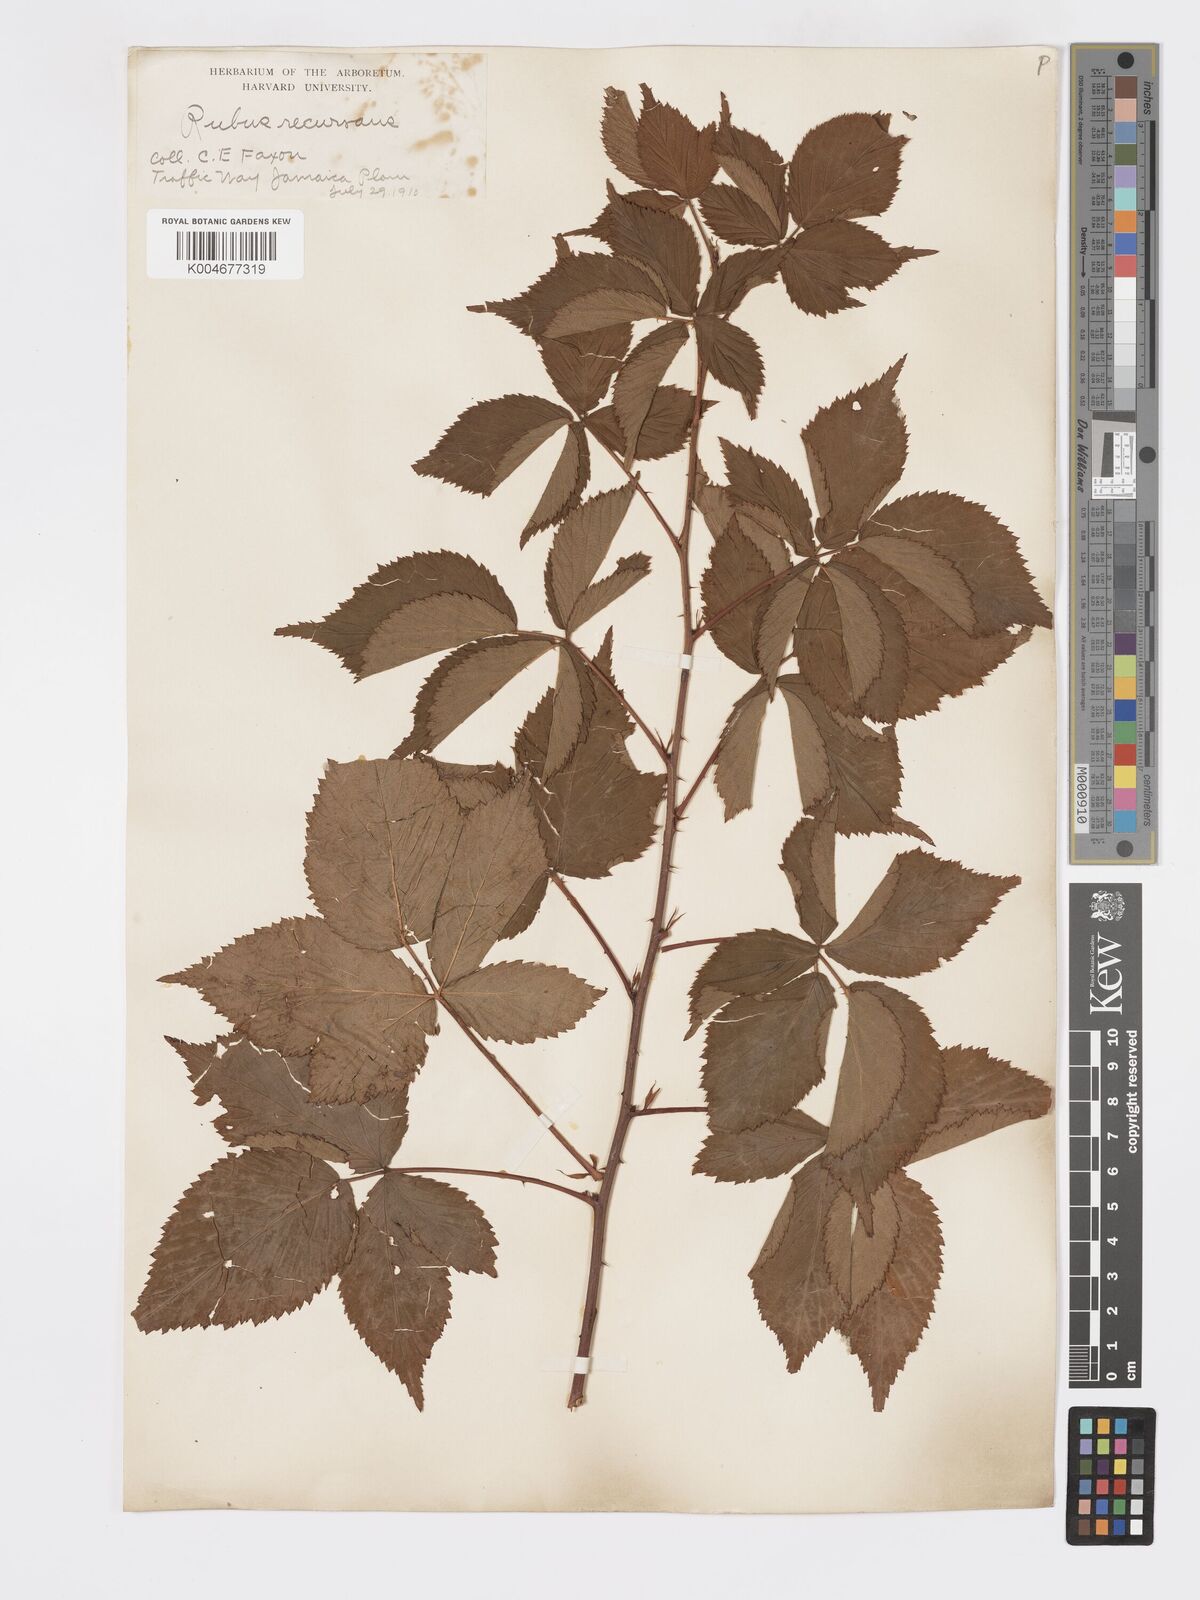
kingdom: Plantae
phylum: Tracheophyta
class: Magnoliopsida
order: Rosales
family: Rosaceae
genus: Rubus
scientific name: Rubus recurvans
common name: Recurved blackberry
